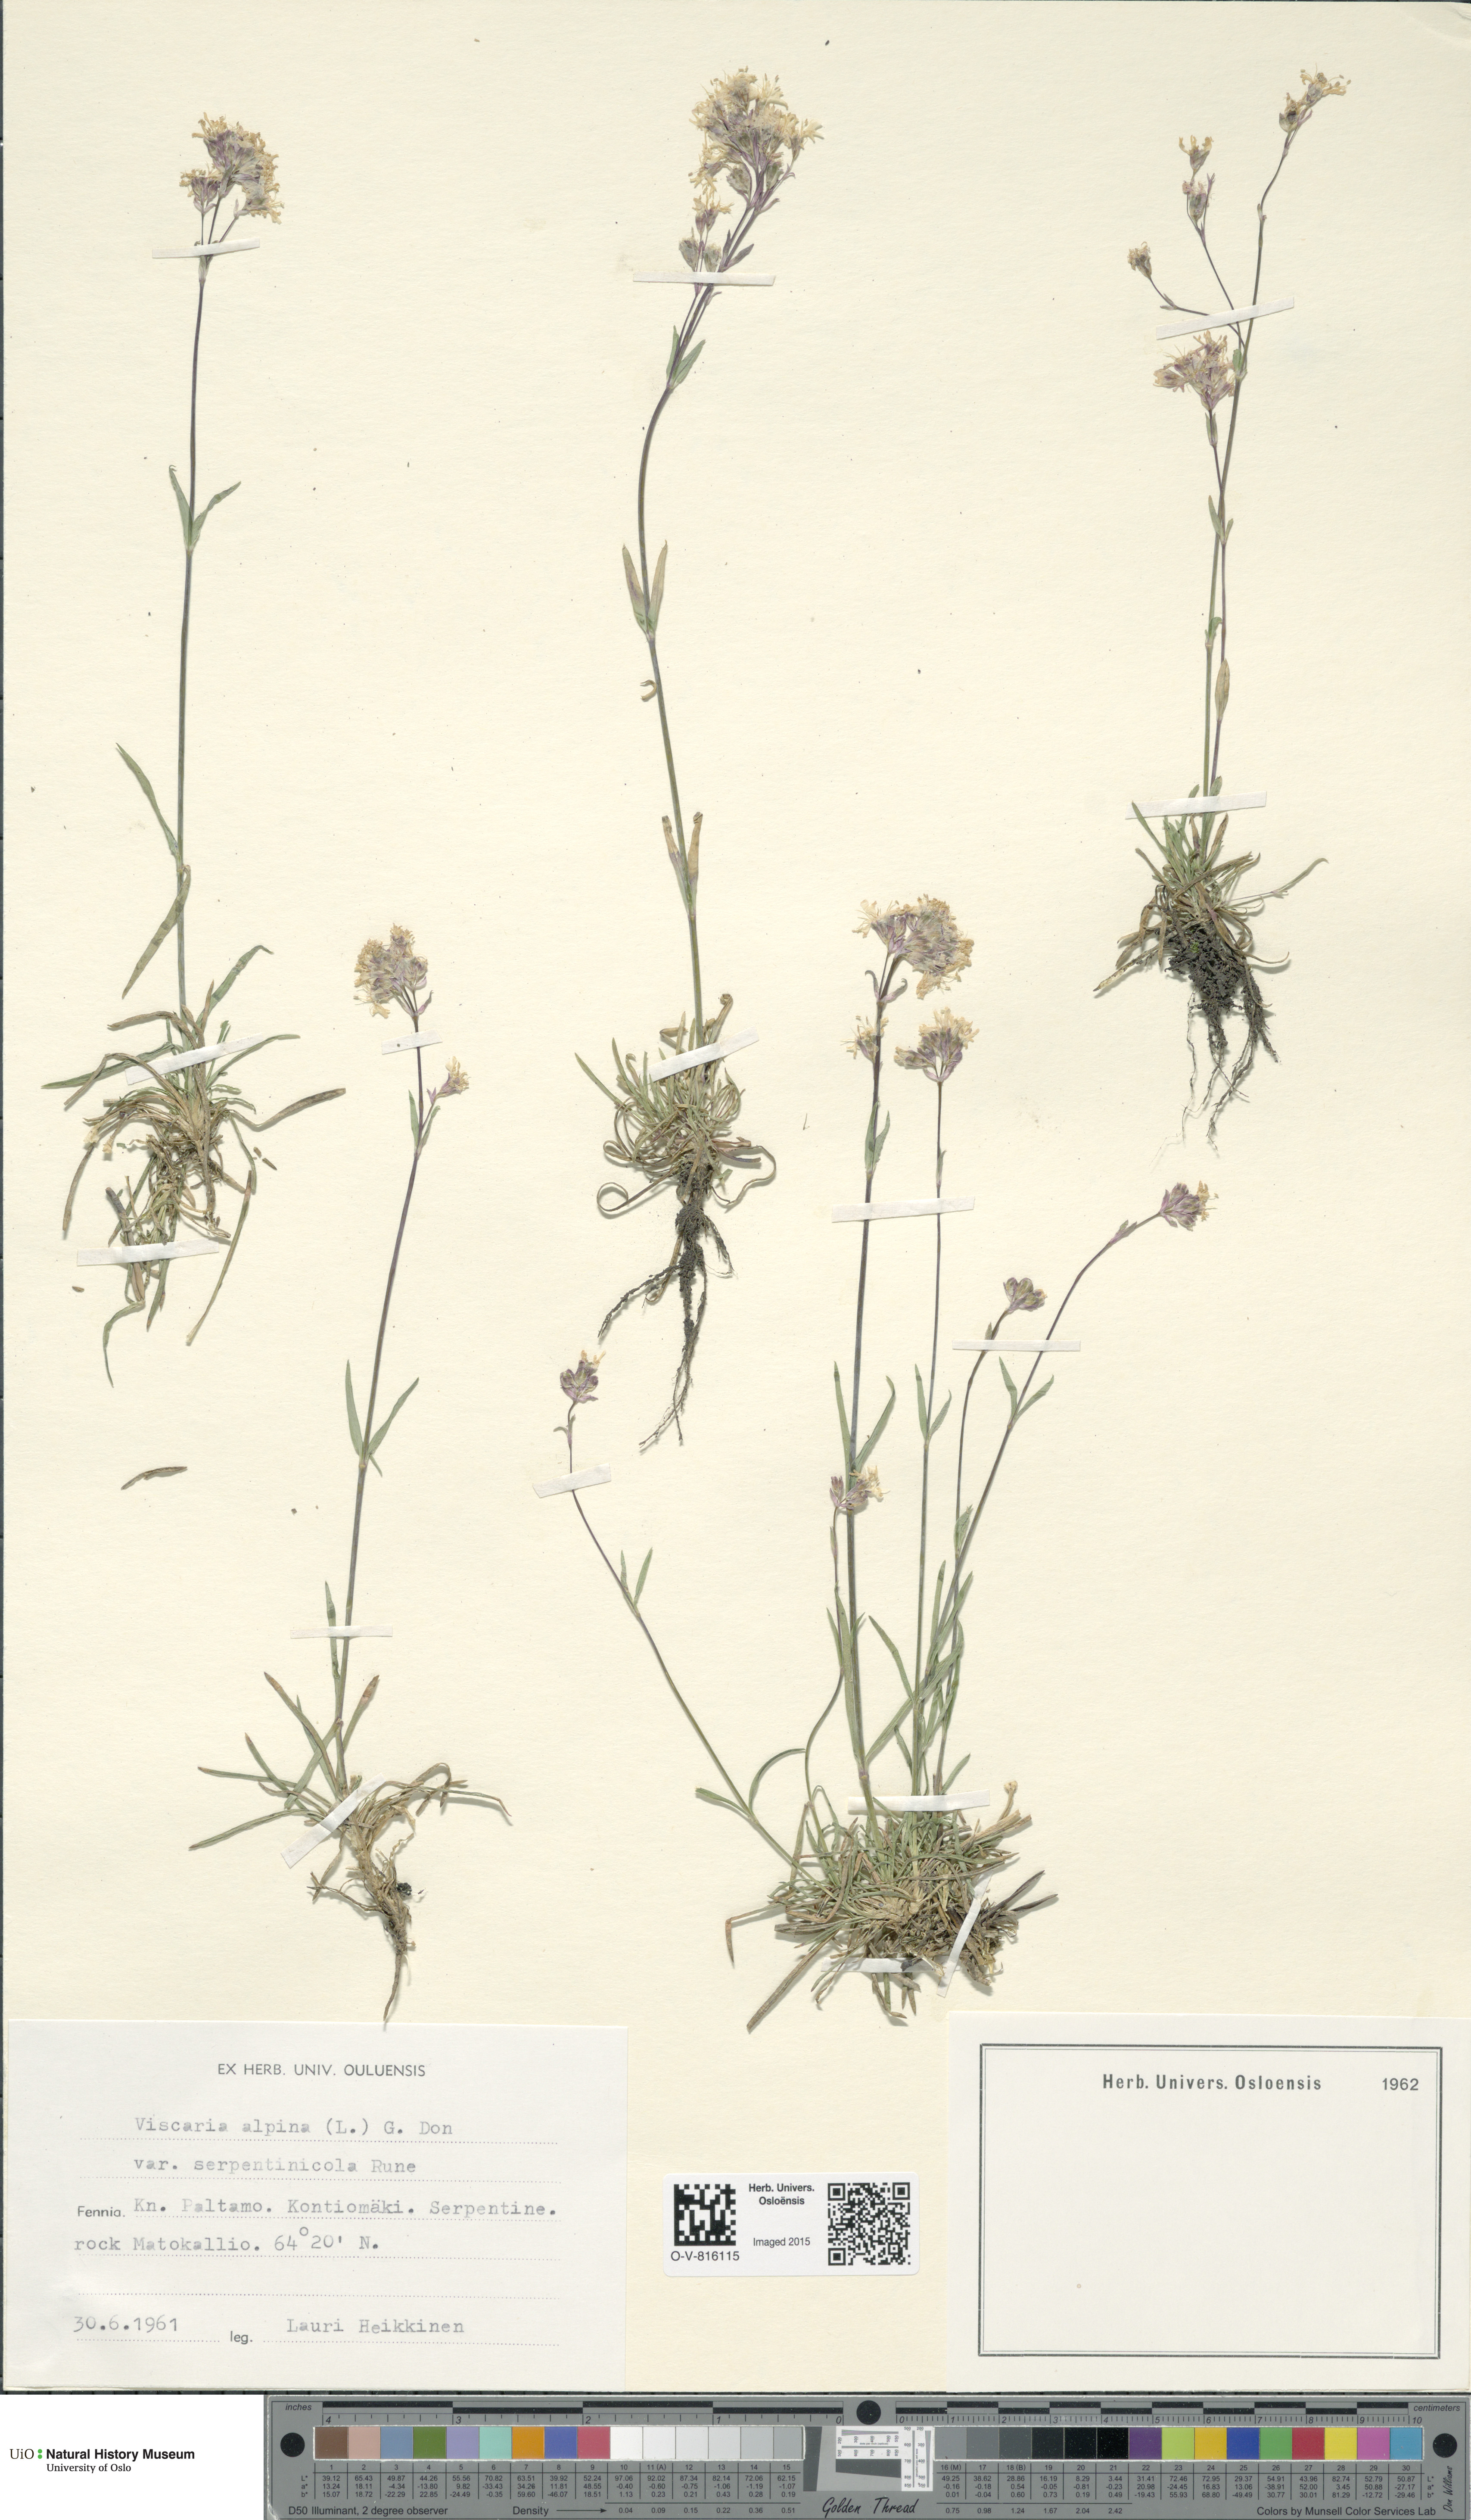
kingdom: Plantae
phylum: Tracheophyta
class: Magnoliopsida
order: Caryophyllales
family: Caryophyllaceae
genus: Viscaria
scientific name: Viscaria alpina
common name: Alpine campion
